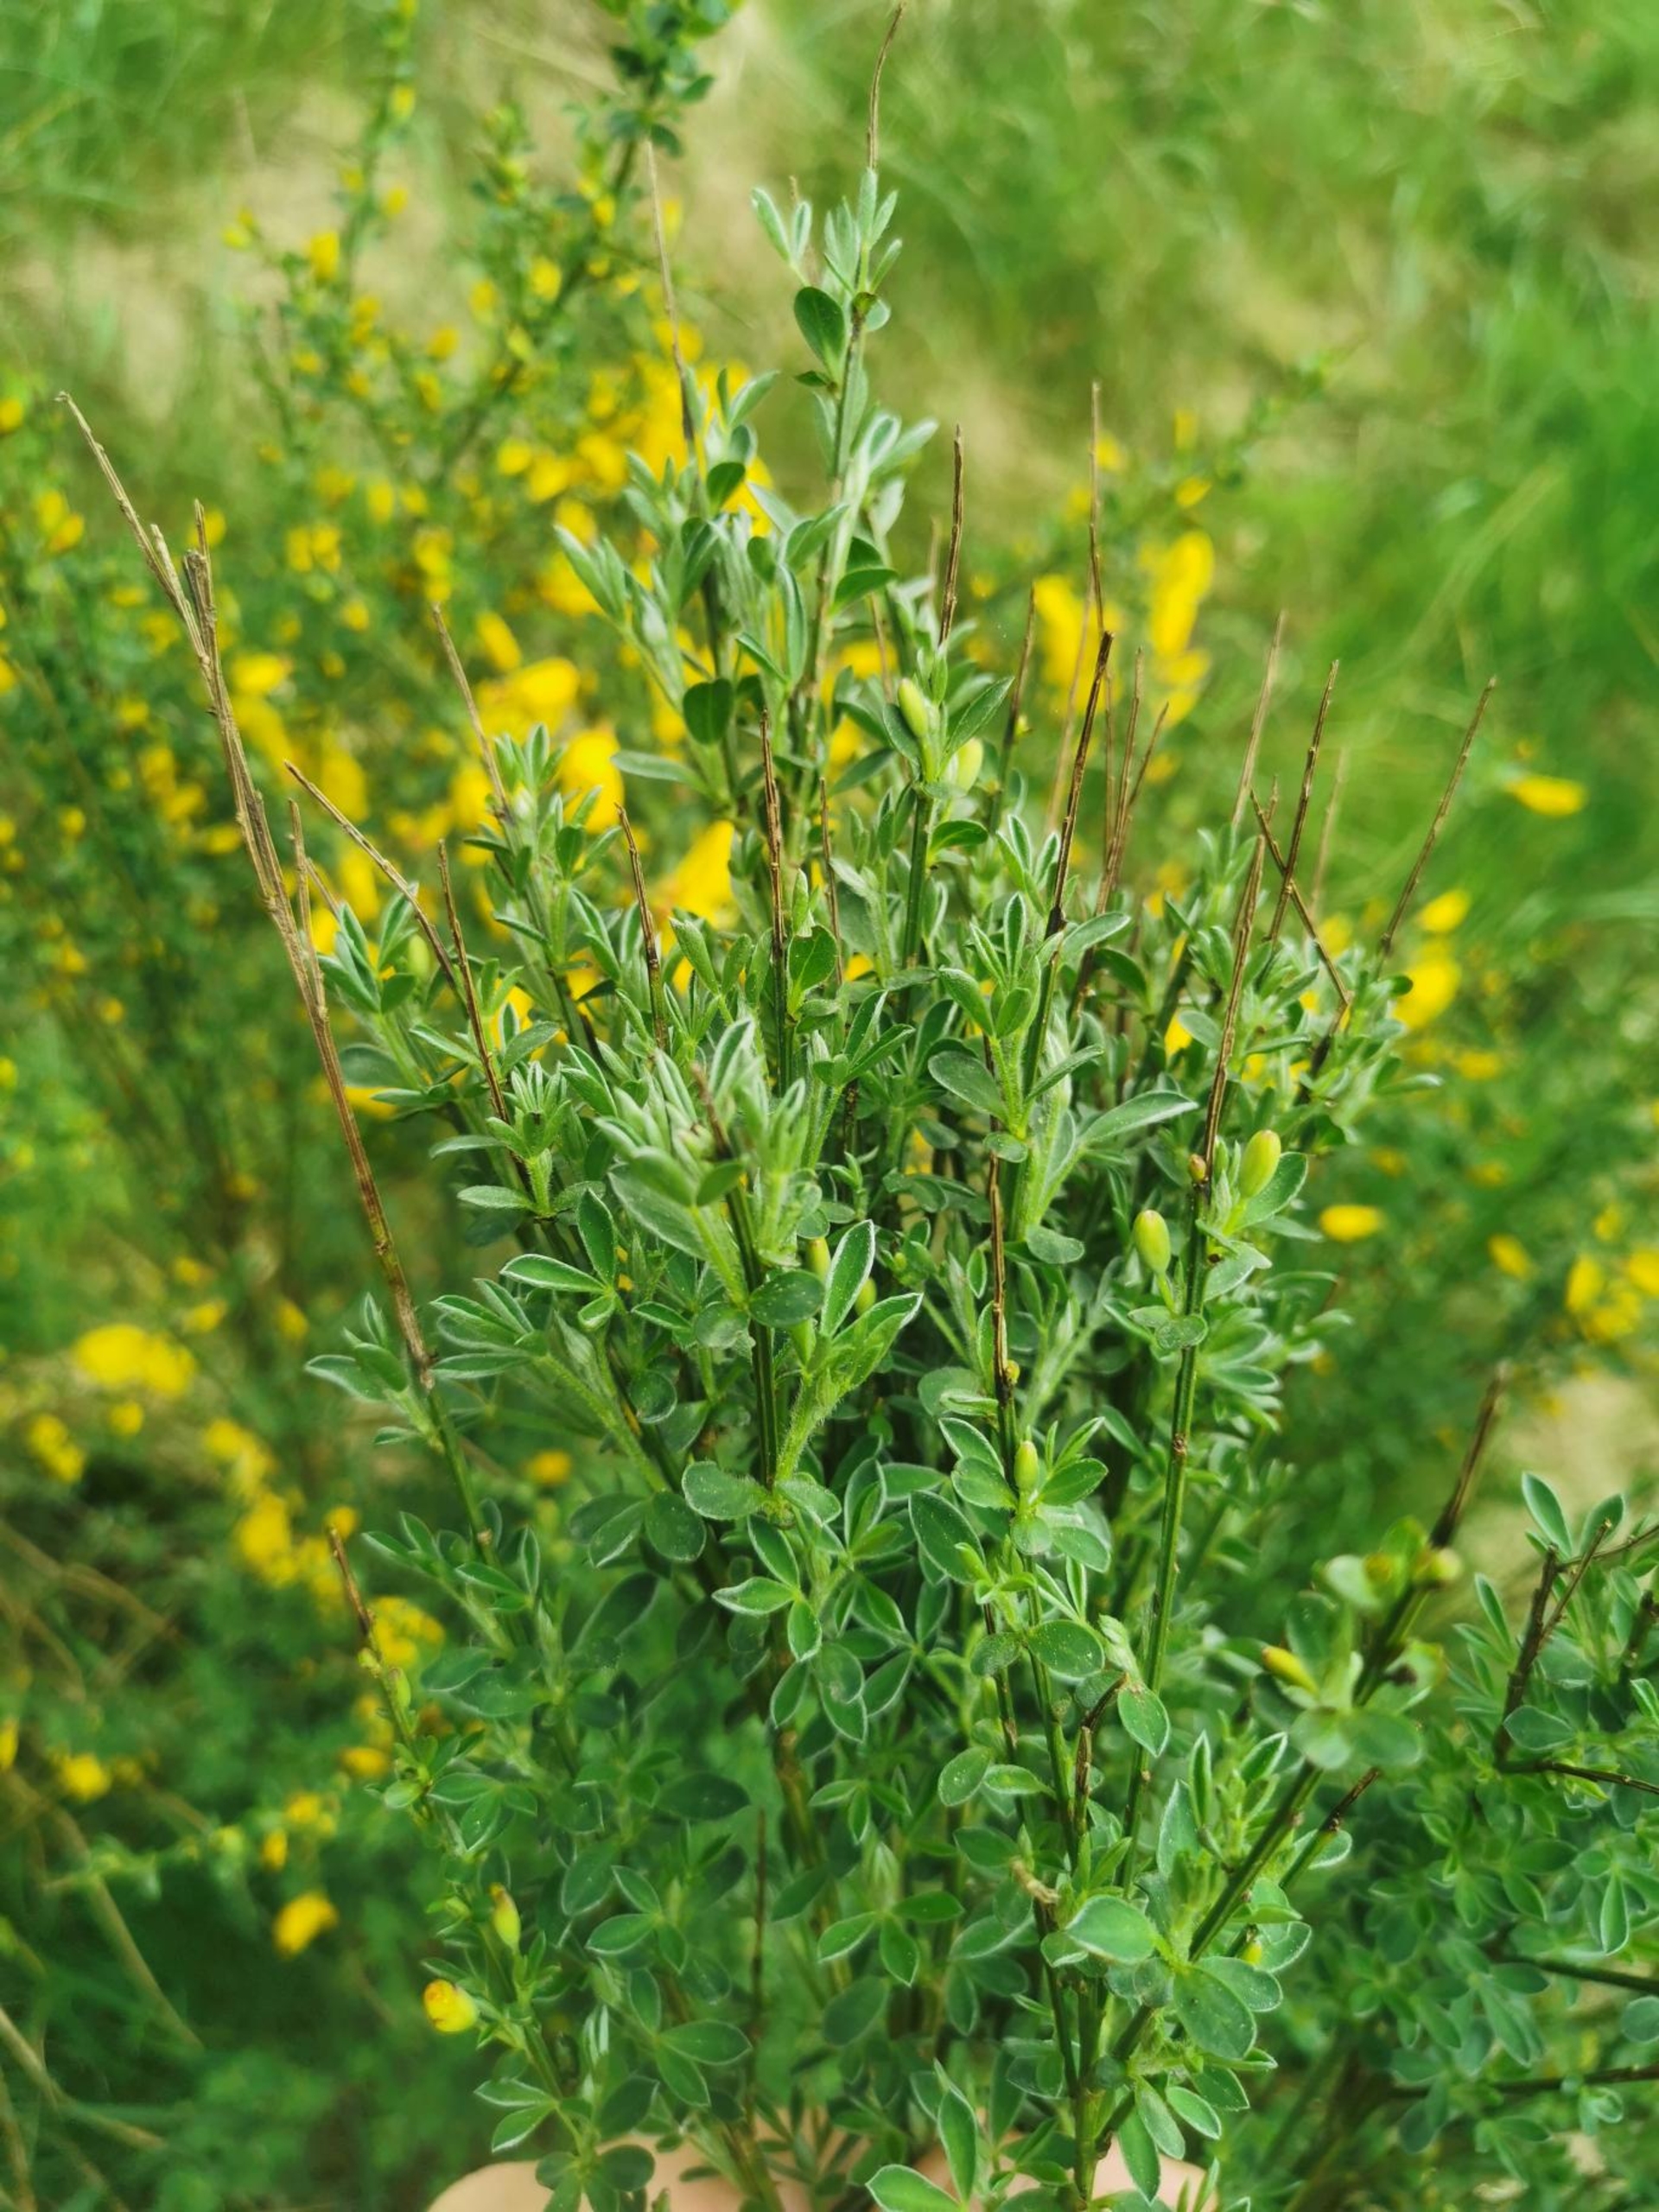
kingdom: Plantae
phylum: Tracheophyta
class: Magnoliopsida
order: Fabales
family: Fabaceae
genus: Cytisus
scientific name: Cytisus scoparius
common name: Almindelig gyvel
